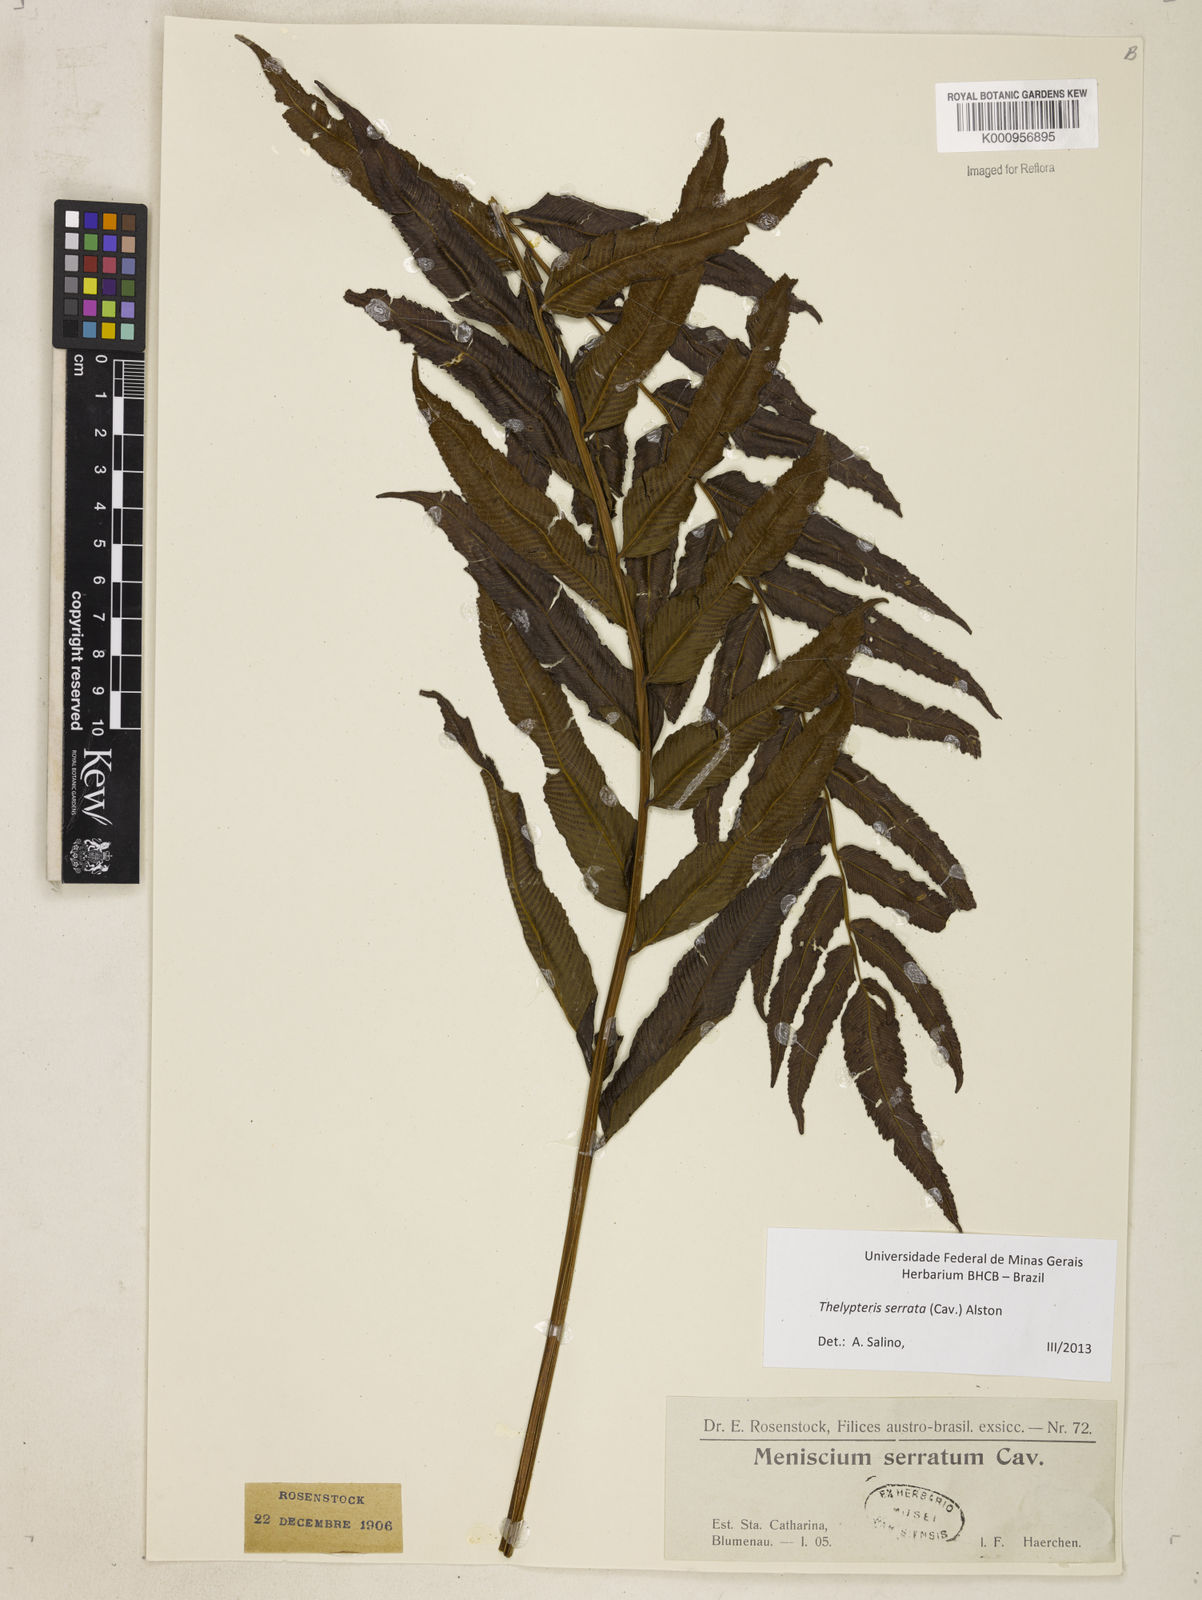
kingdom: Plantae
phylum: Tracheophyta
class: Polypodiopsida
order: Polypodiales
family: Thelypteridaceae
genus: Meniscium
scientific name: Meniscium serratum
